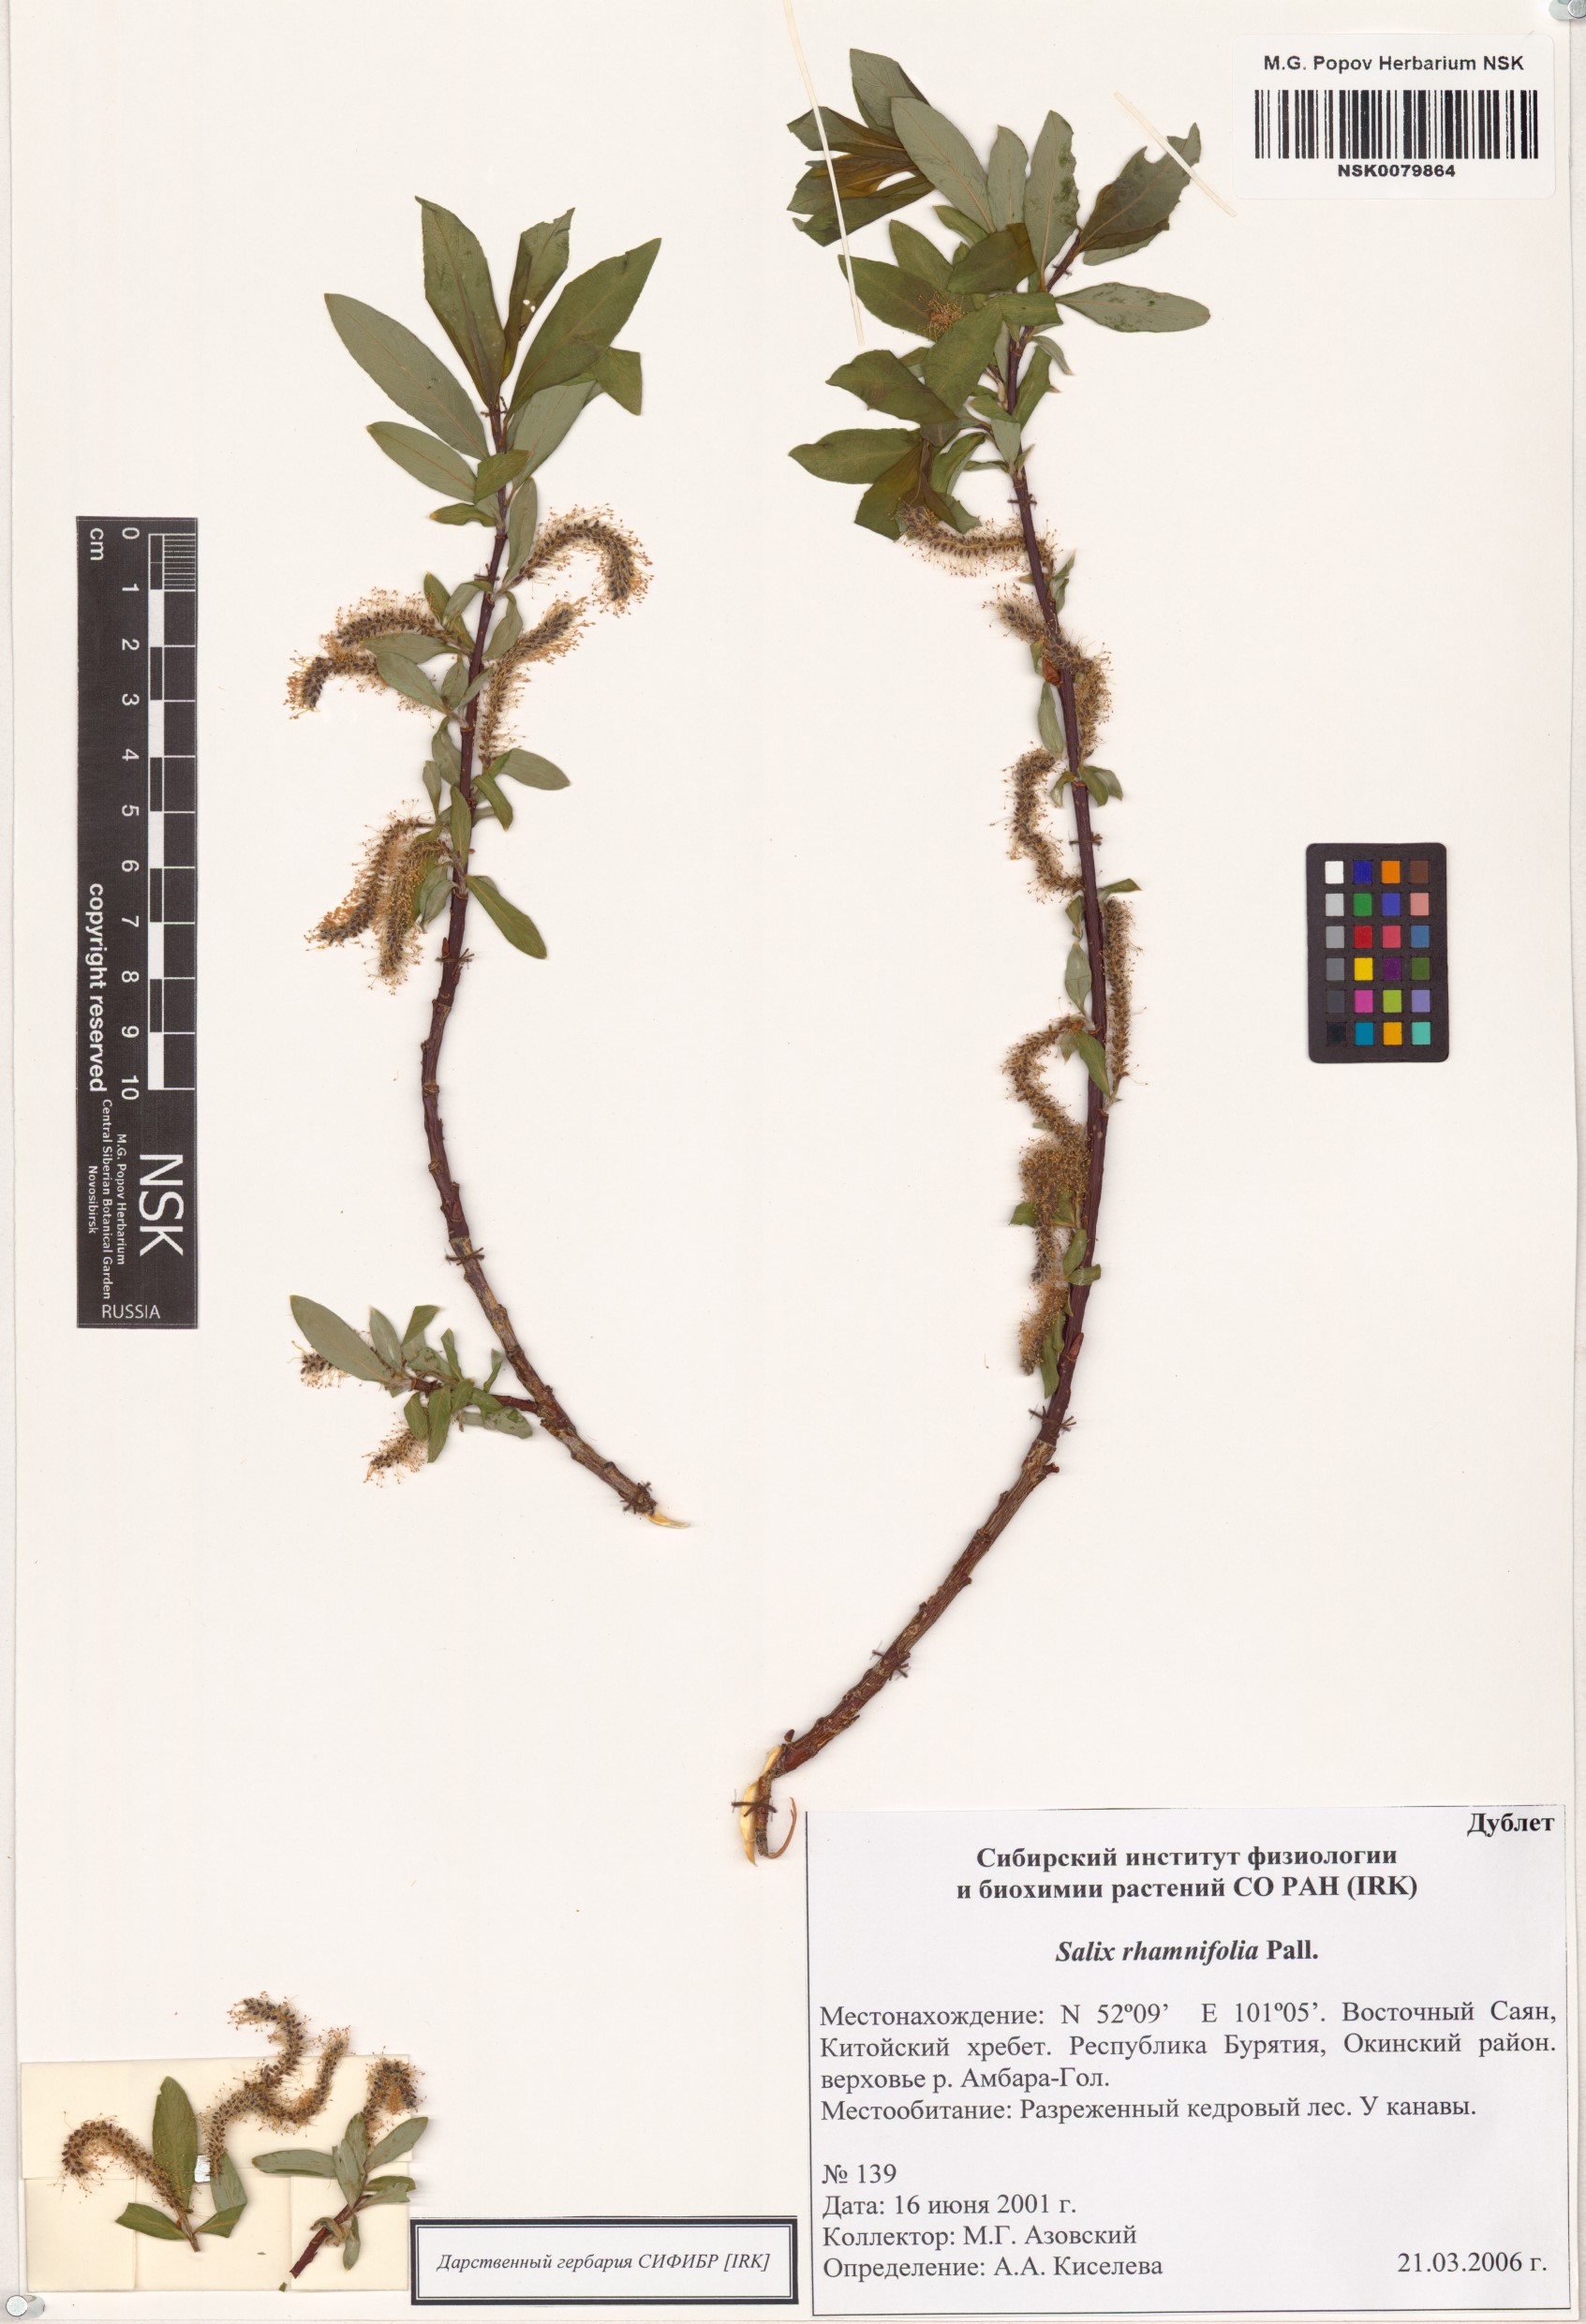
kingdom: Plantae
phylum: Tracheophyta
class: Magnoliopsida
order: Malpighiales
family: Salicaceae
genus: Salix
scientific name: Salix rhamnifolia
